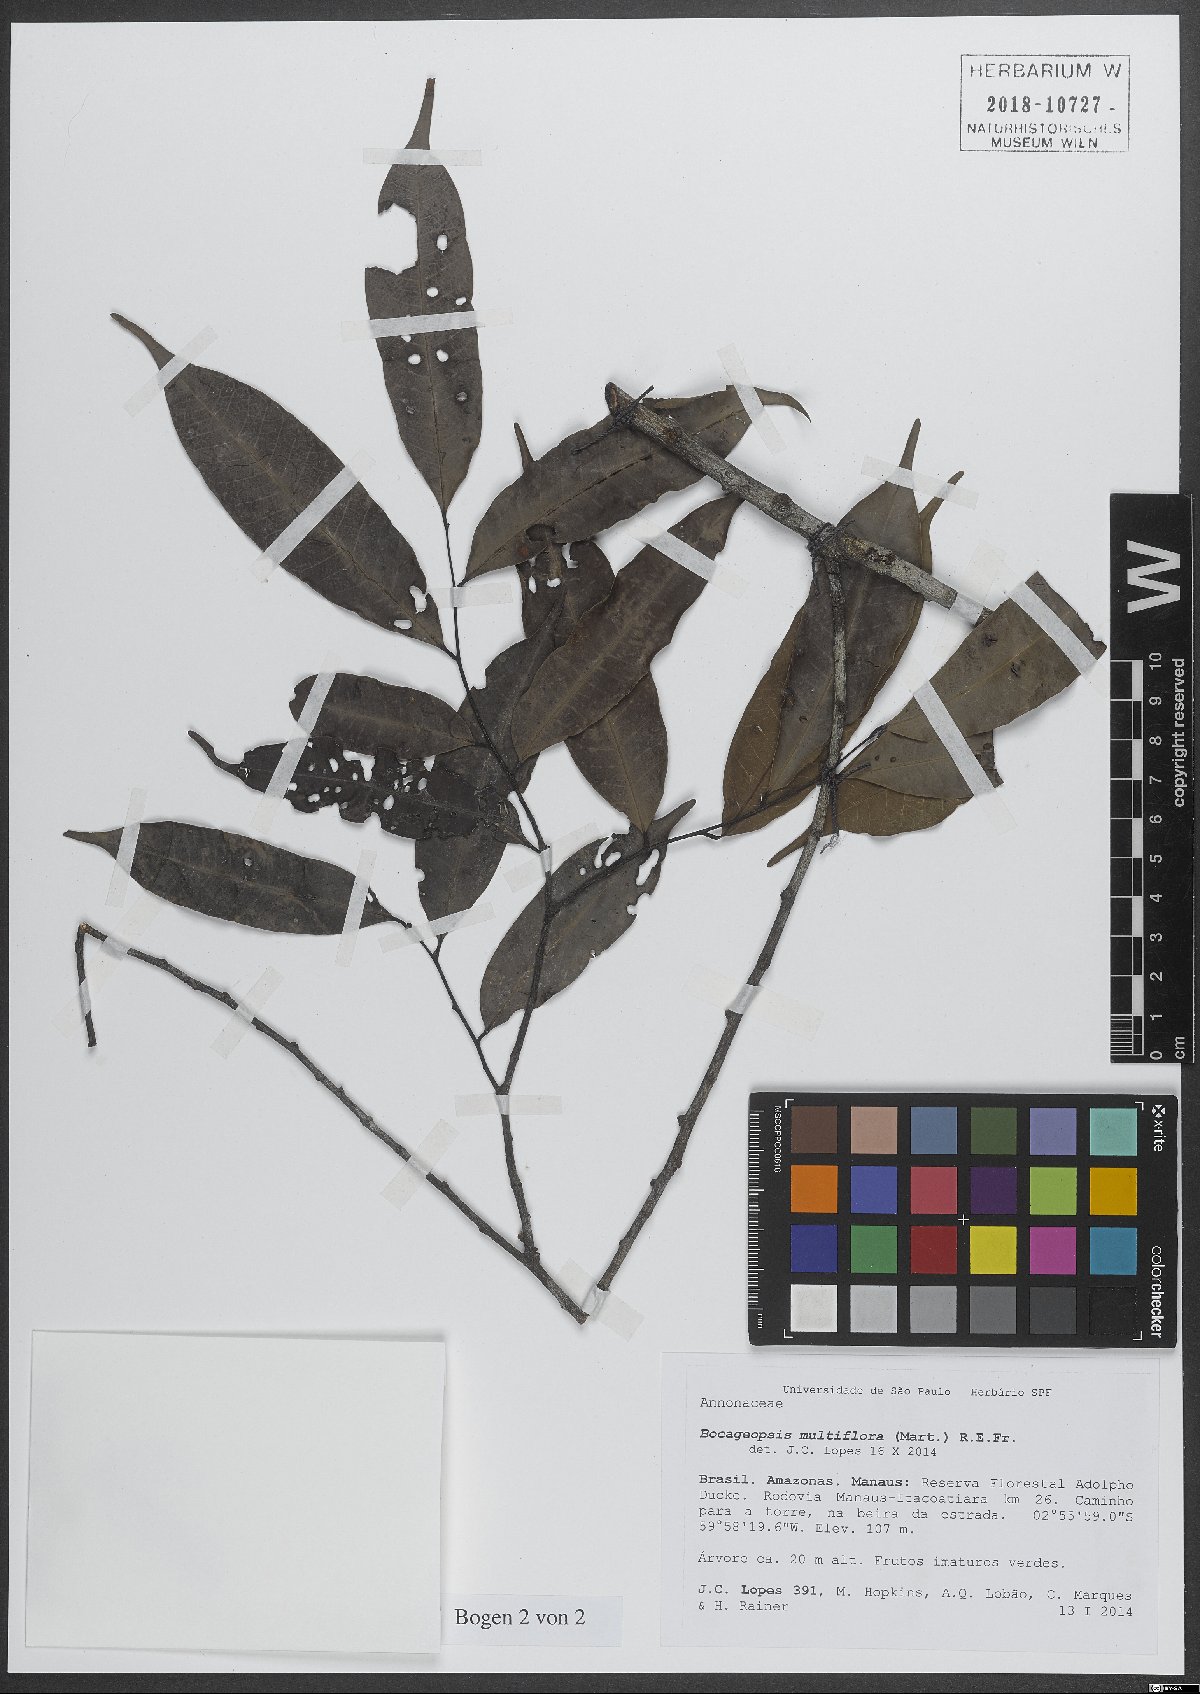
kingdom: Plantae
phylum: Tracheophyta
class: Magnoliopsida
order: Magnoliales
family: Annonaceae
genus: Bocageopsis
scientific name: Bocageopsis multiflora
